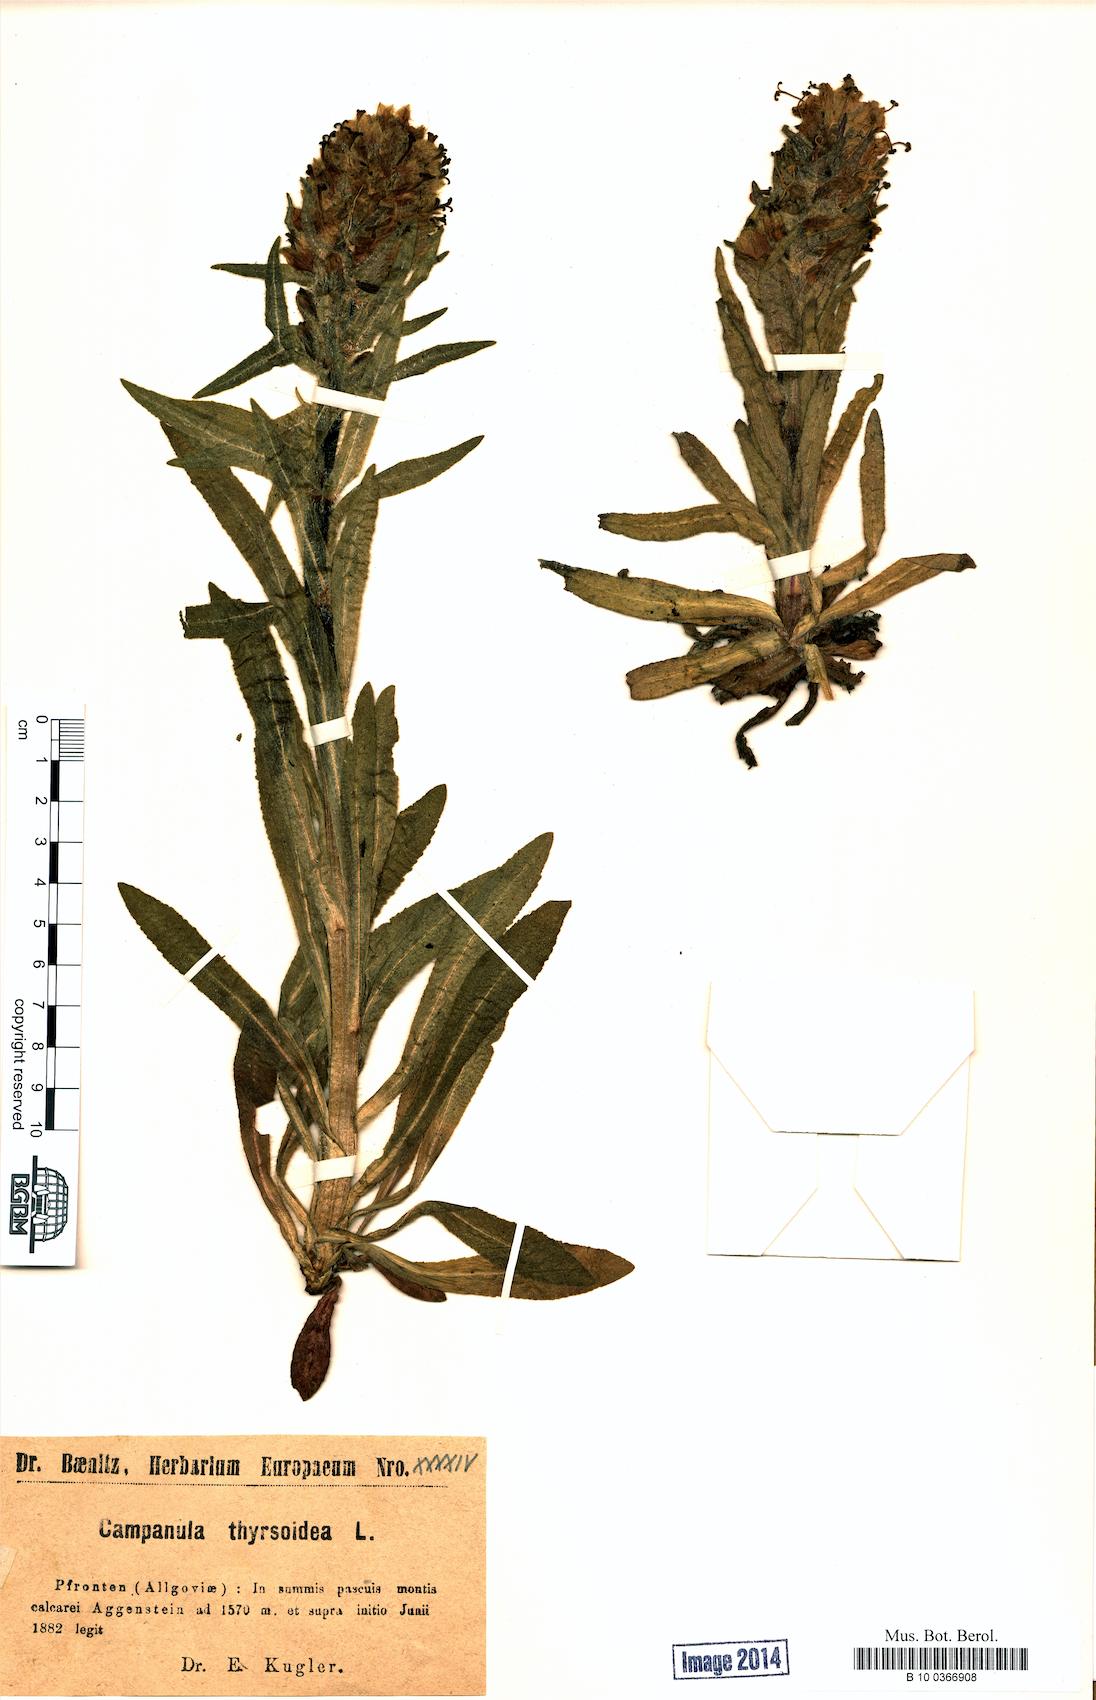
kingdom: Plantae
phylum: Tracheophyta
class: Magnoliopsida
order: Asterales
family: Campanulaceae
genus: Campanula
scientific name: Campanula thyrsoides
